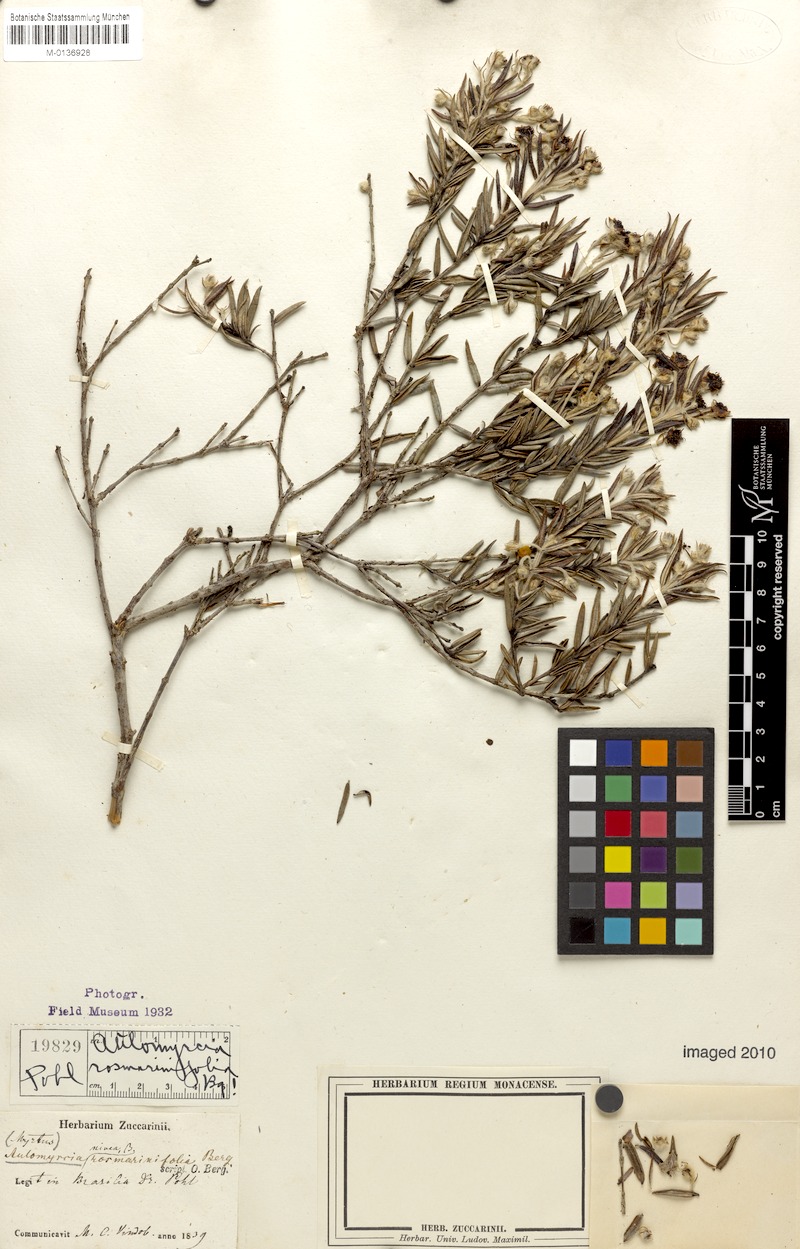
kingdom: Plantae
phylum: Tracheophyta
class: Magnoliopsida
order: Myrtales
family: Myrtaceae
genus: Myrcia
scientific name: Myrcia nivea
